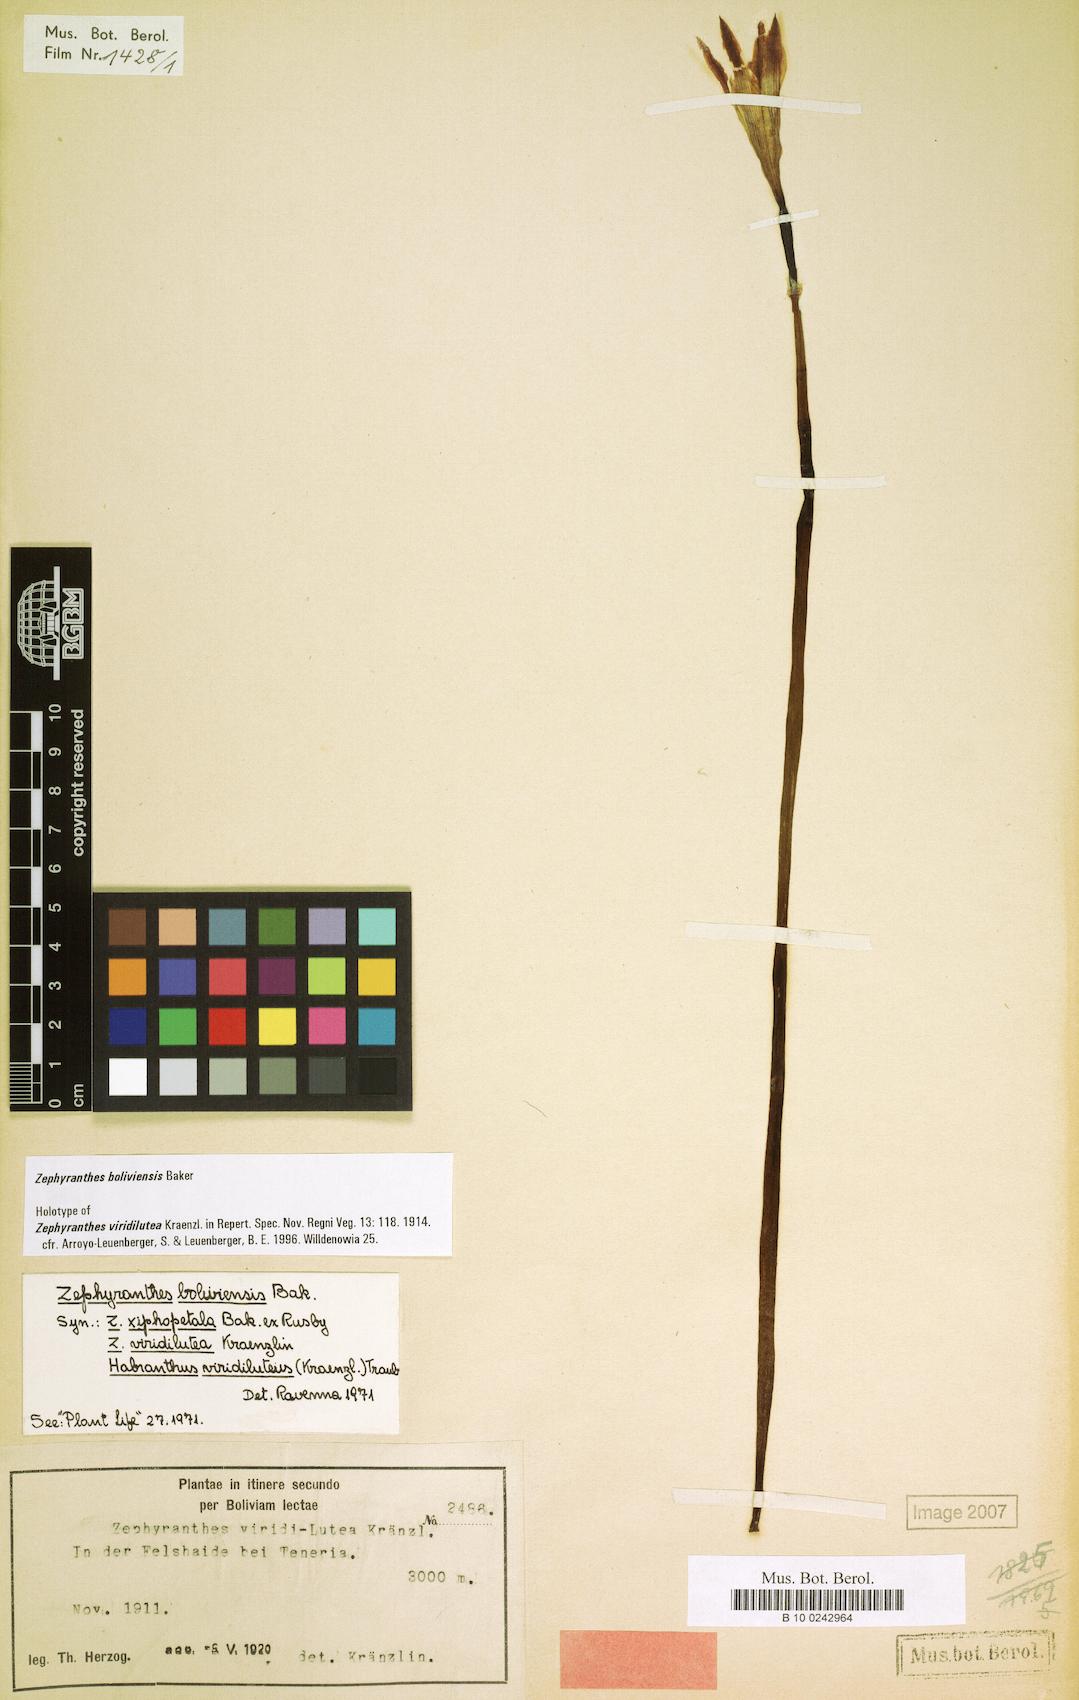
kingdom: Plantae
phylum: Tracheophyta
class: Liliopsida
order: Asparagales
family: Amaryllidaceae
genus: Pyrolirion
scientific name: Pyrolirion boliviense
